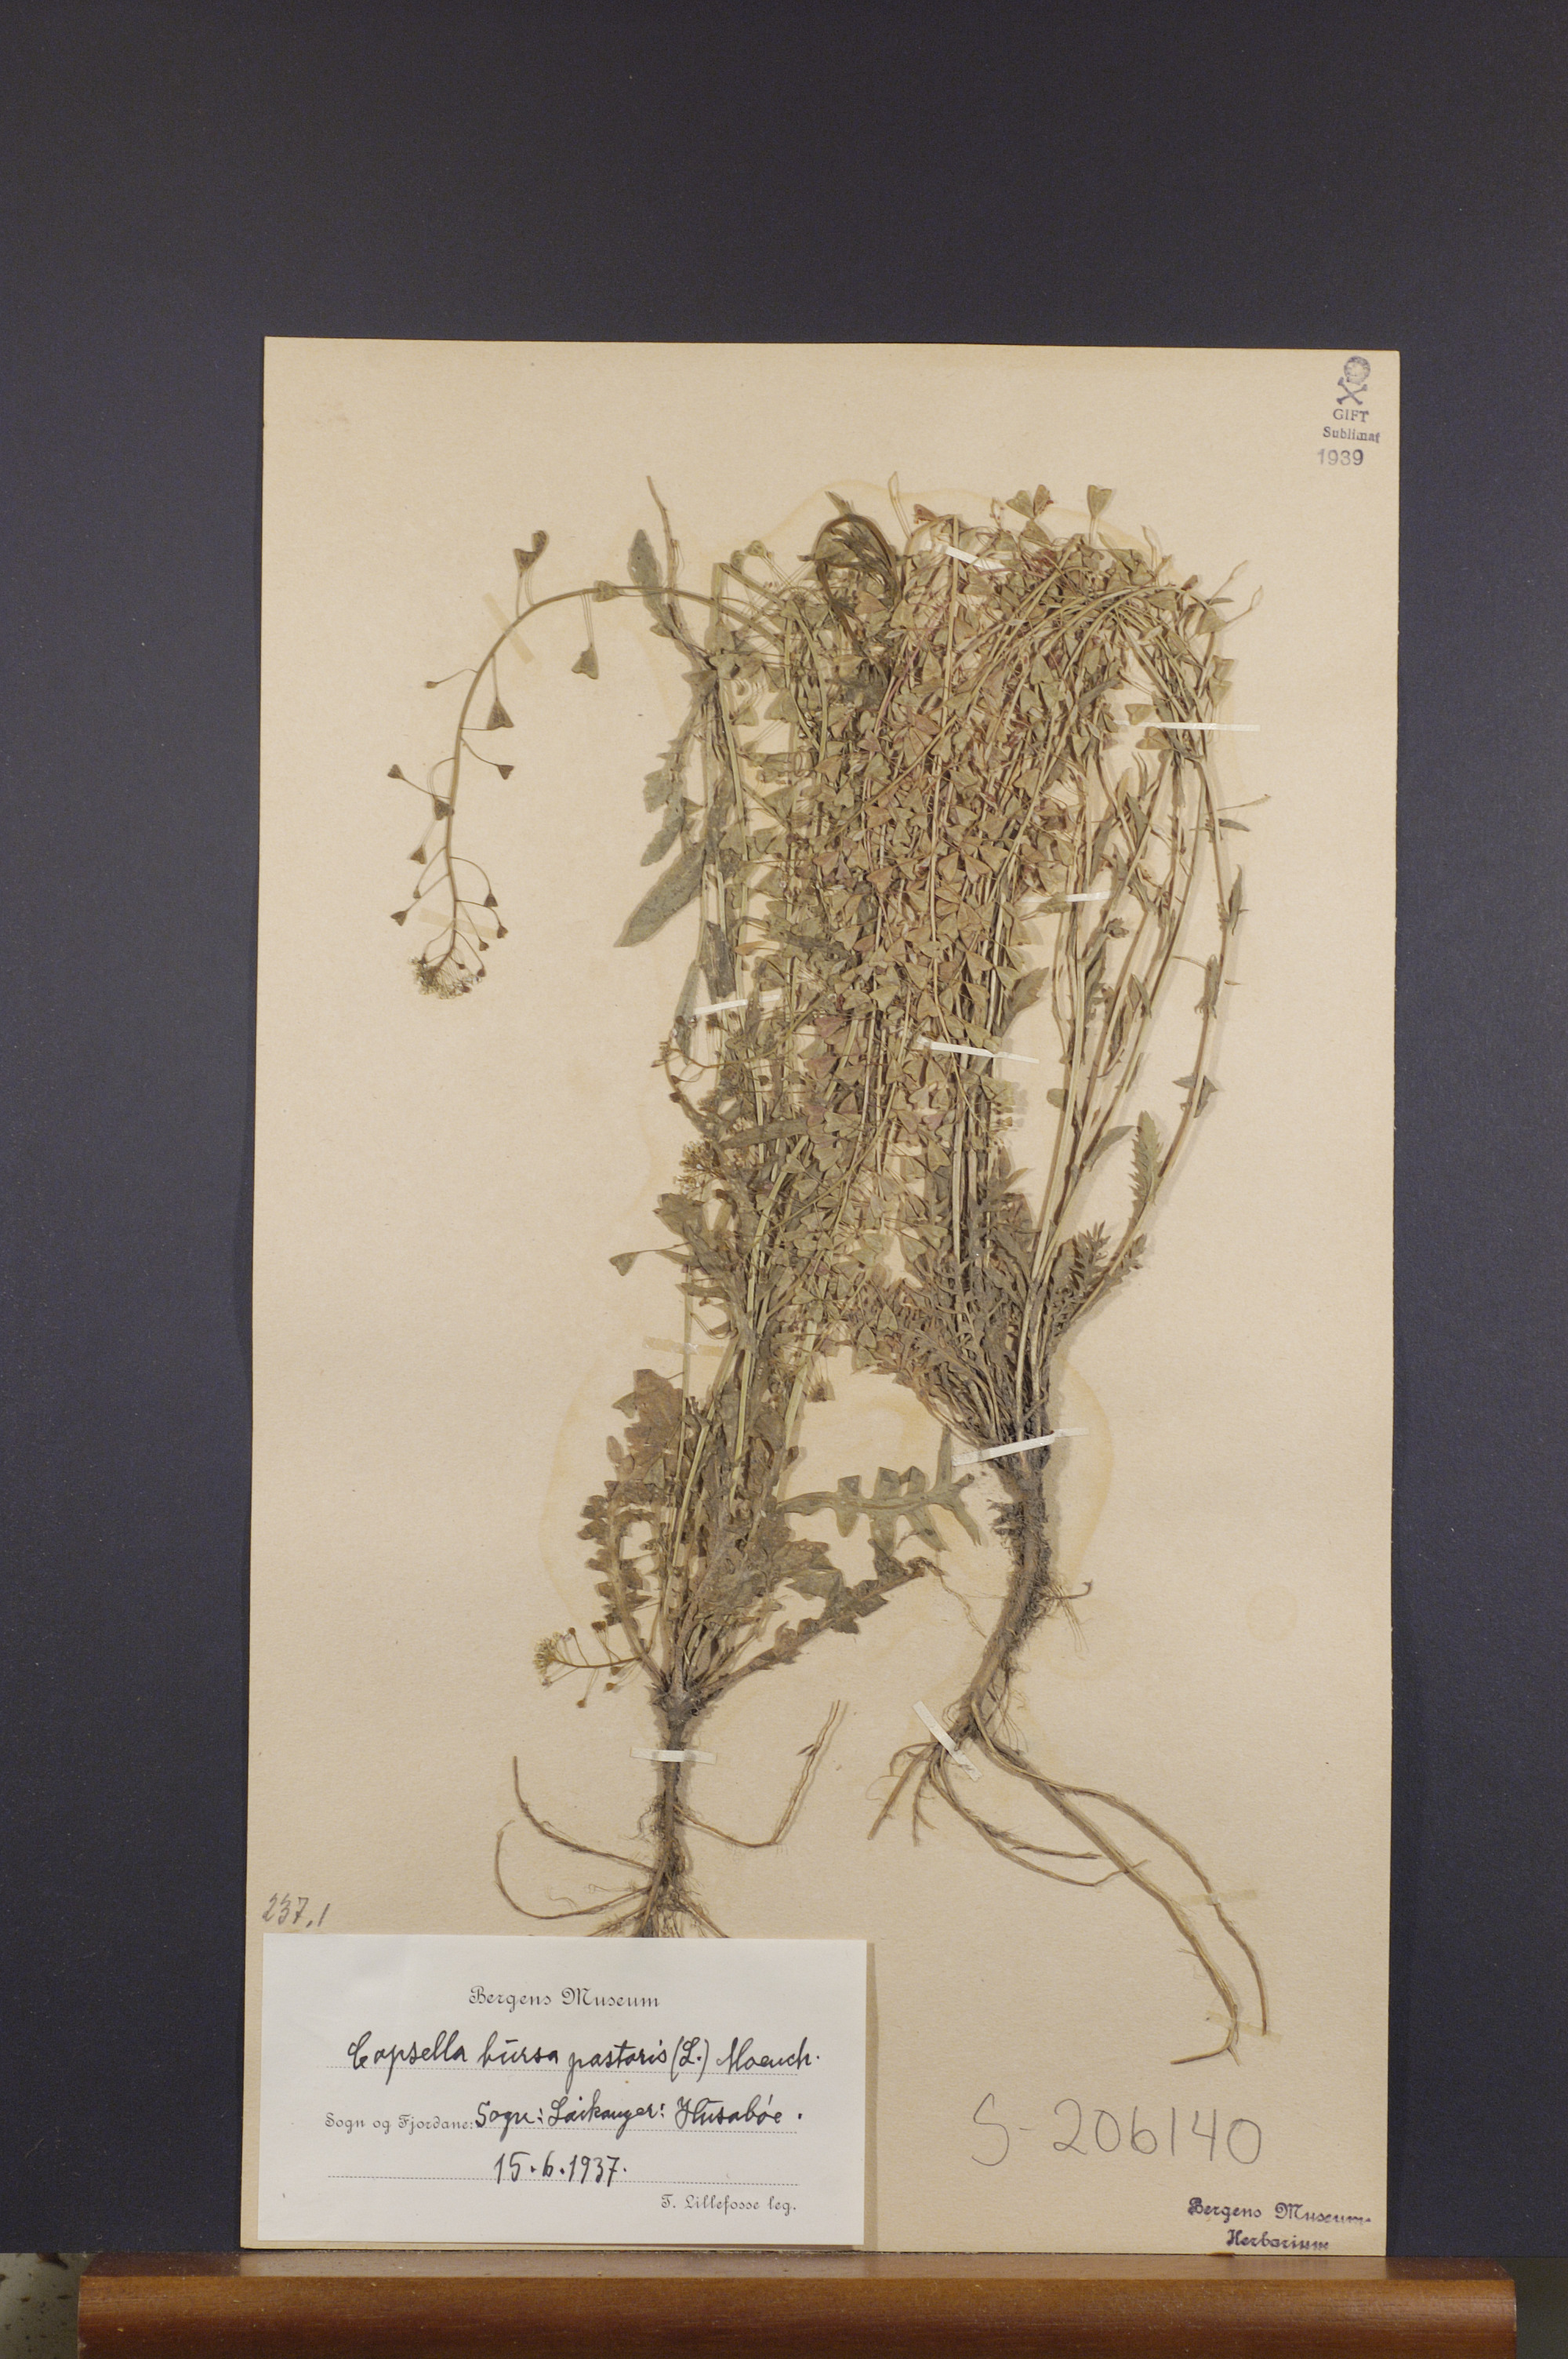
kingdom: Plantae
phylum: Tracheophyta
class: Magnoliopsida
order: Brassicales
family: Brassicaceae
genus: Capsella
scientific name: Capsella bursa-pastoris
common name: Shepherd's purse
